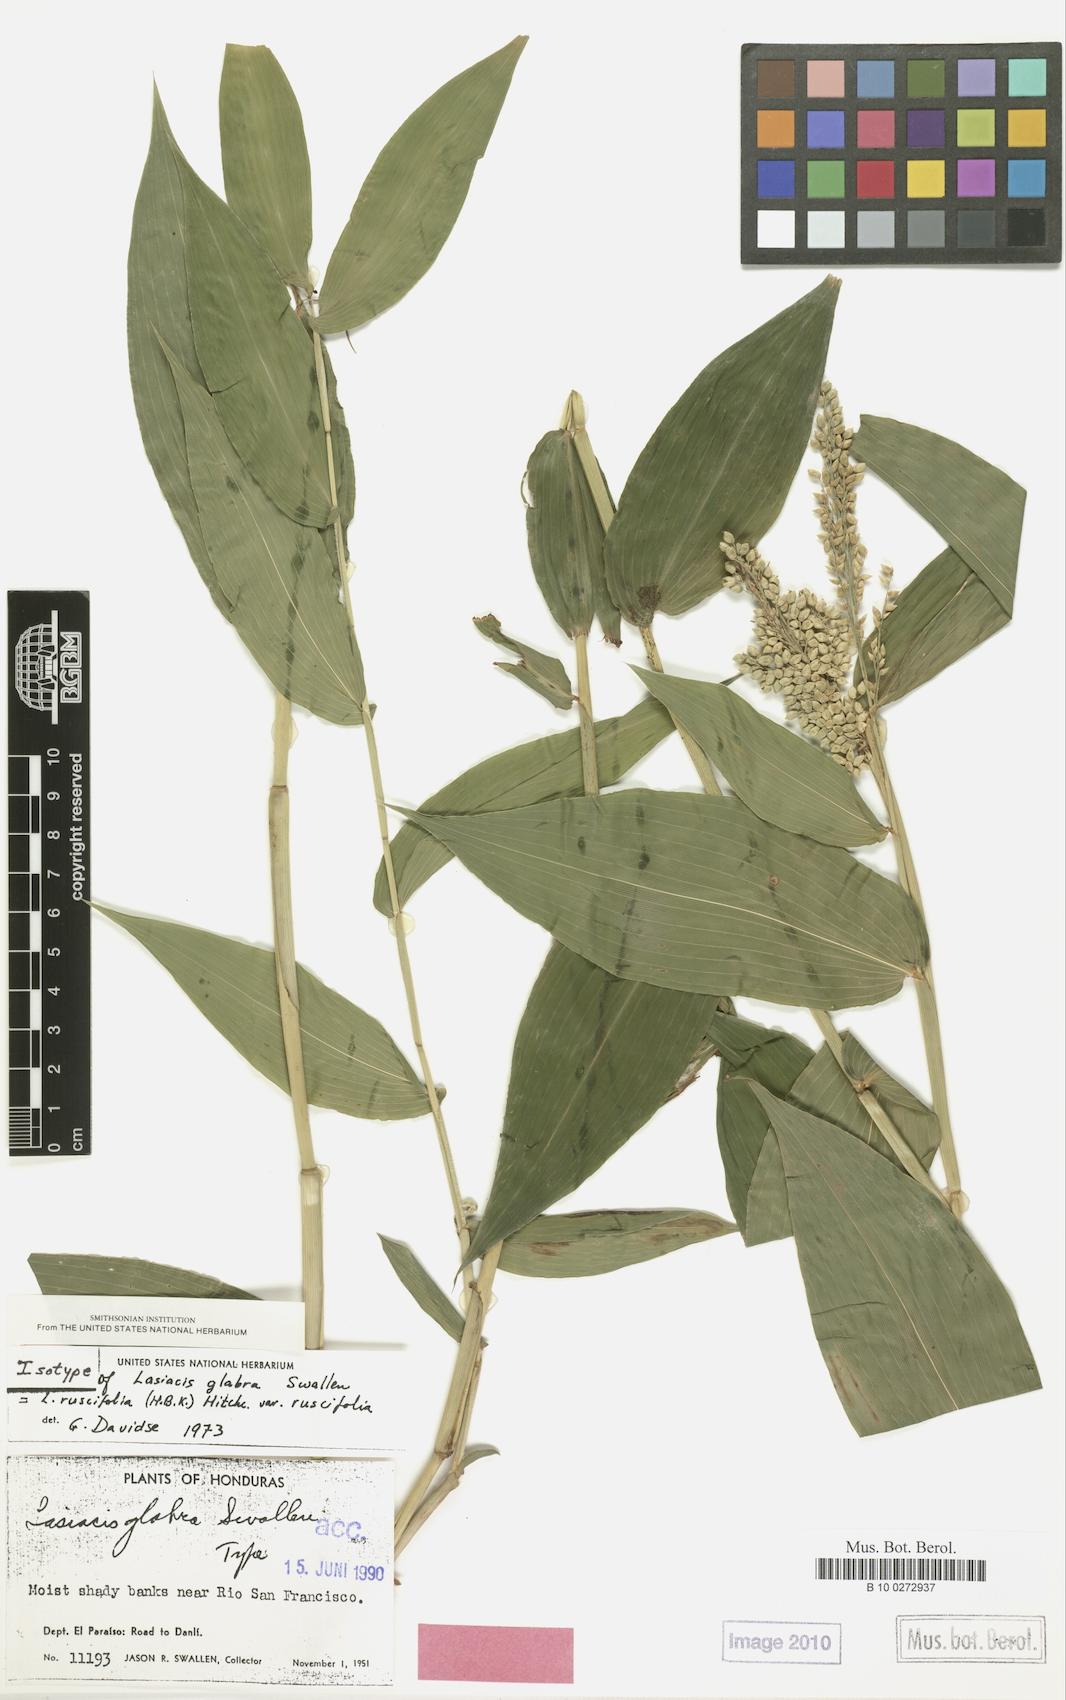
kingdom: Plantae
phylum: Tracheophyta
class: Liliopsida
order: Poales
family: Poaceae
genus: Lasiacis
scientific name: Lasiacis ruscifolia
